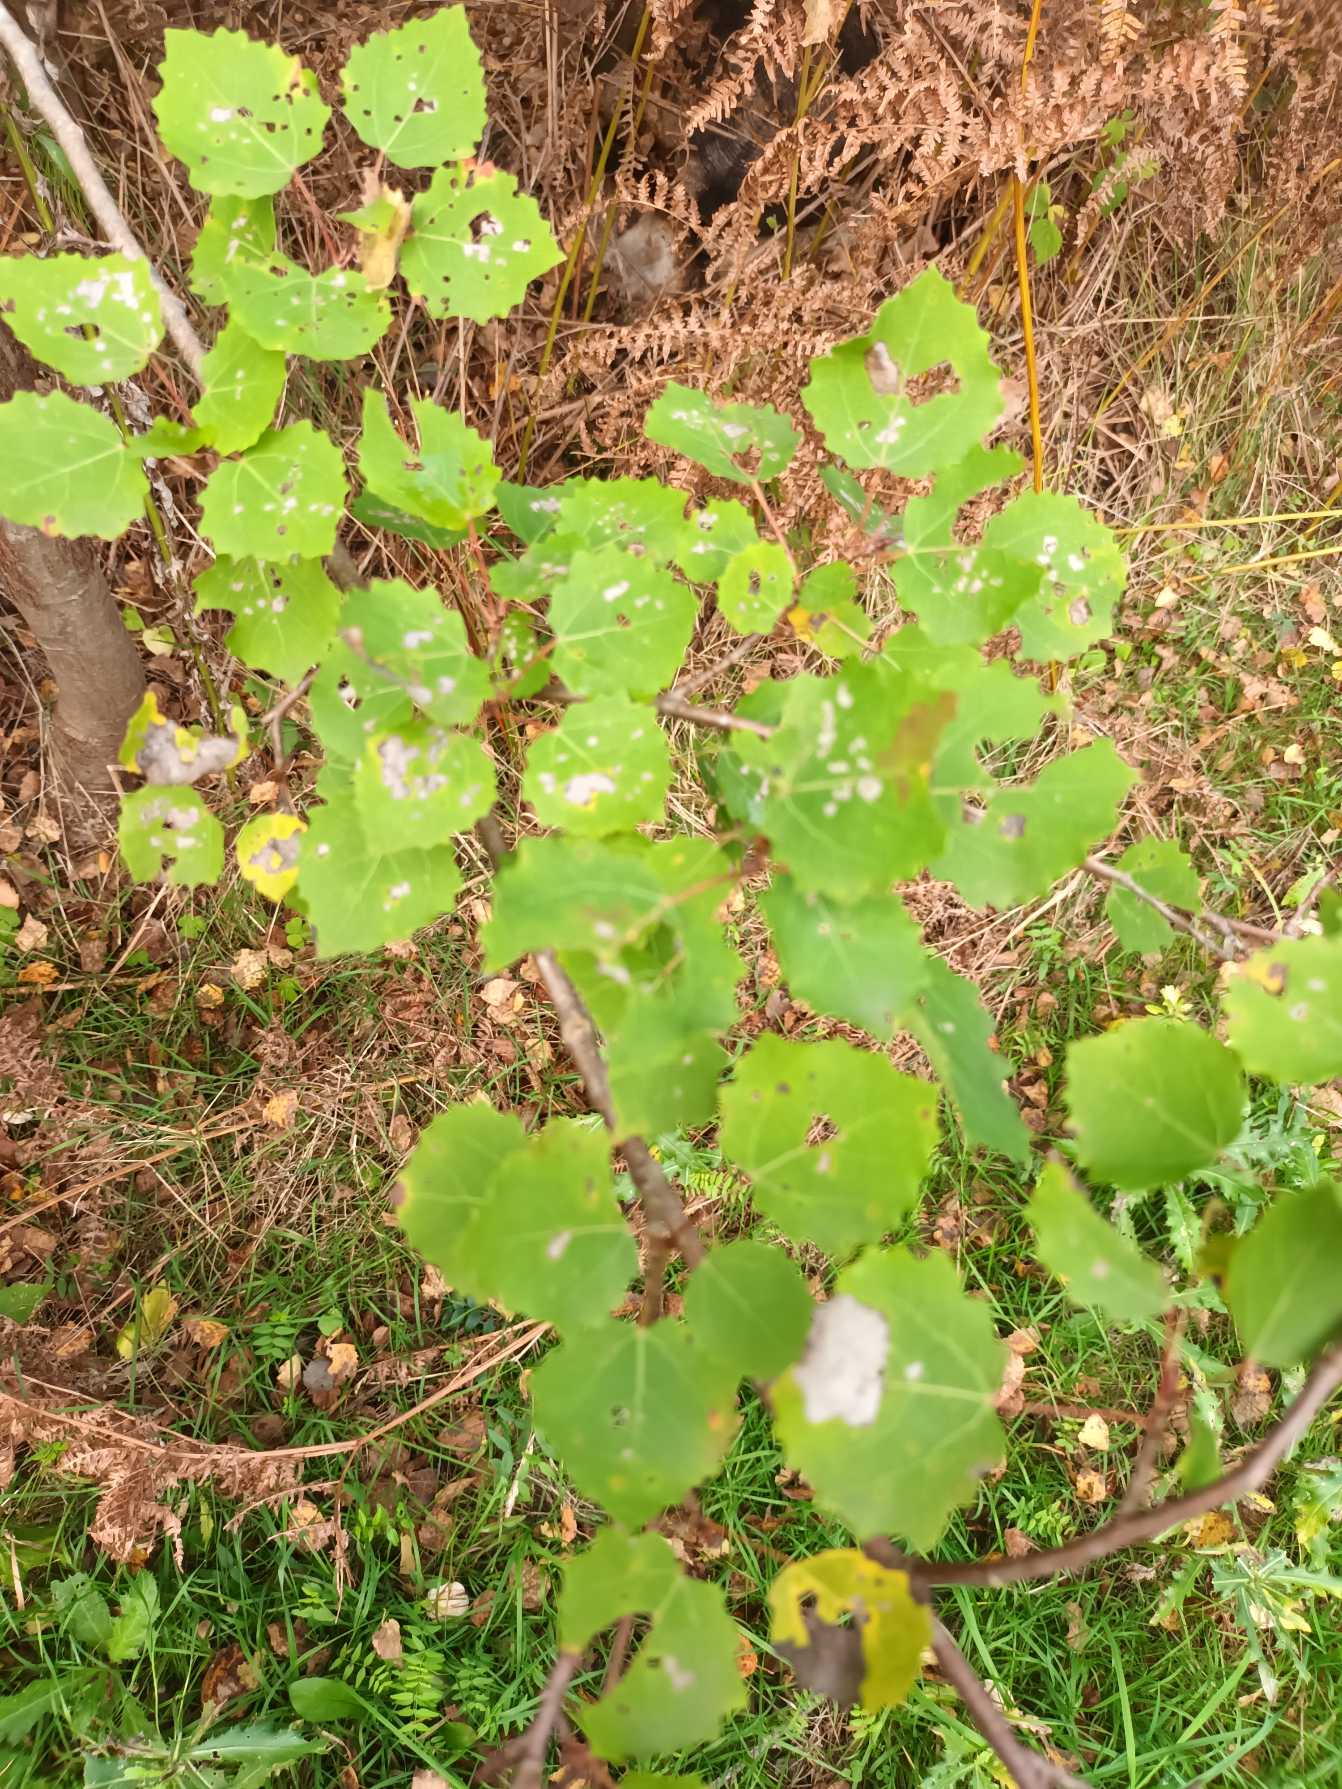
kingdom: Plantae
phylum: Tracheophyta
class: Magnoliopsida
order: Malpighiales
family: Salicaceae
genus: Populus
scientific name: Populus tremula
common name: Bævreasp
